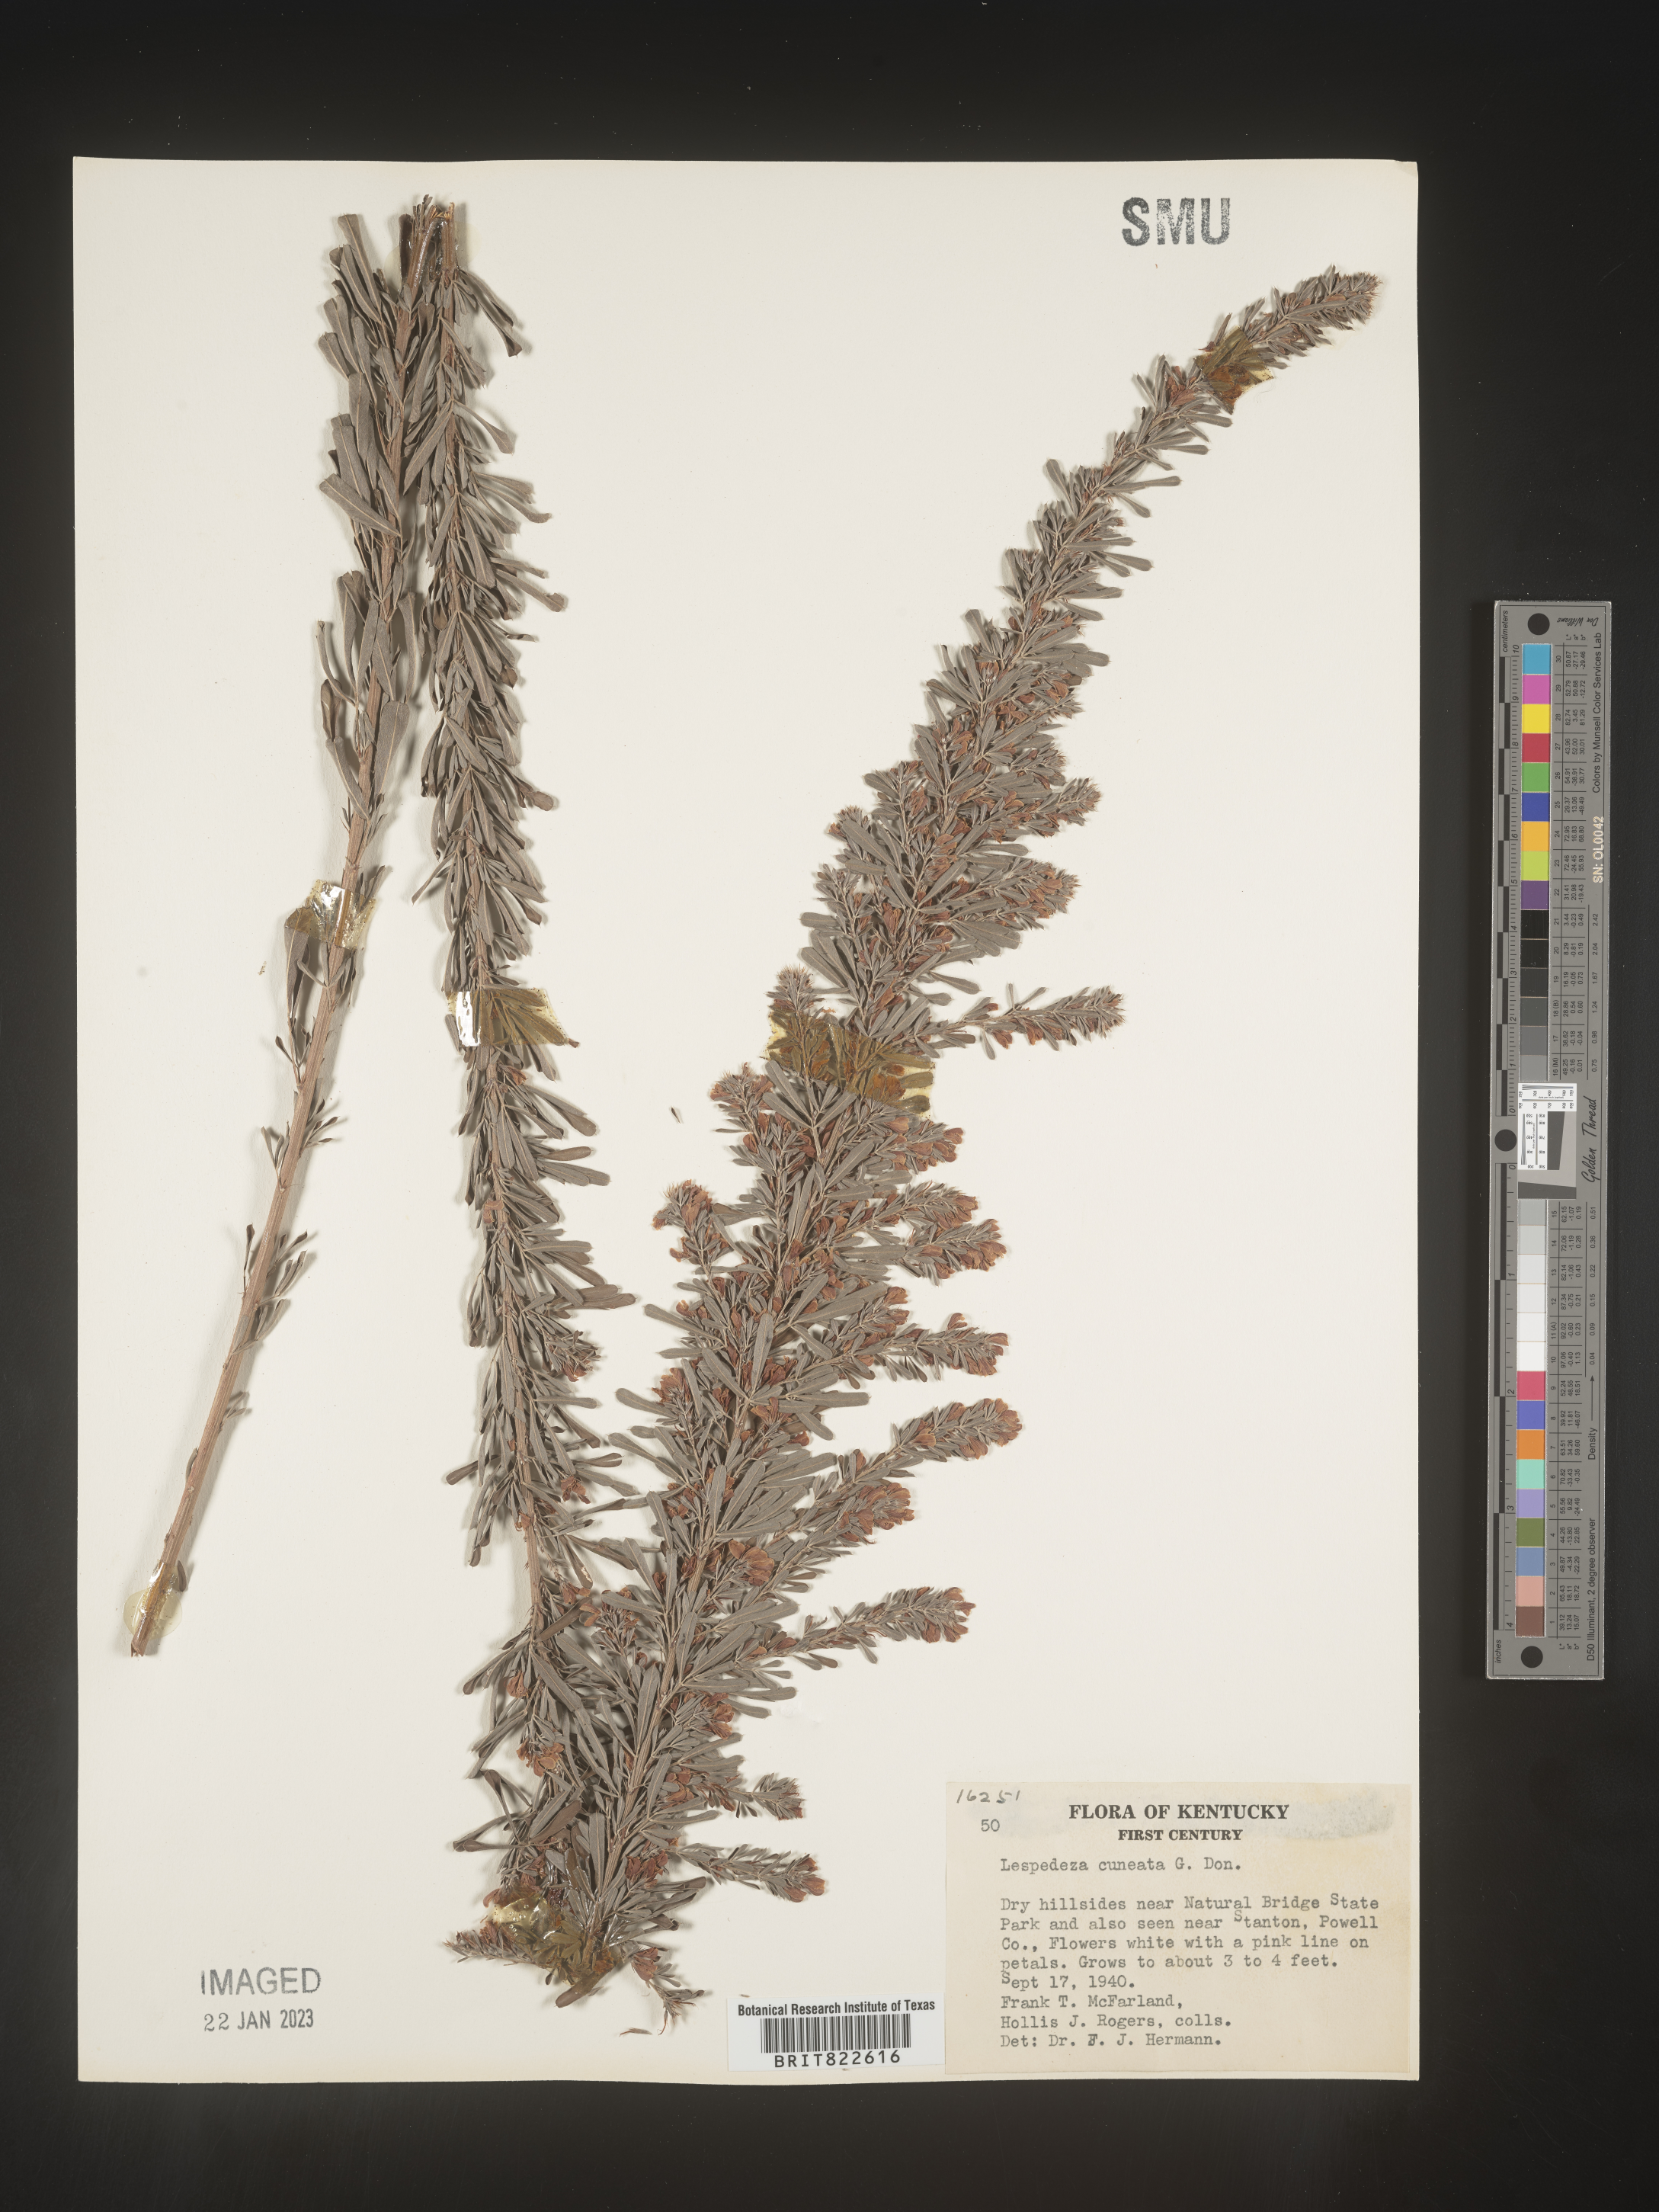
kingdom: Plantae
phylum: Tracheophyta
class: Magnoliopsida
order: Fabales
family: Fabaceae
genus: Lespedeza
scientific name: Lespedeza cuneata
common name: Chinese bush-clover
